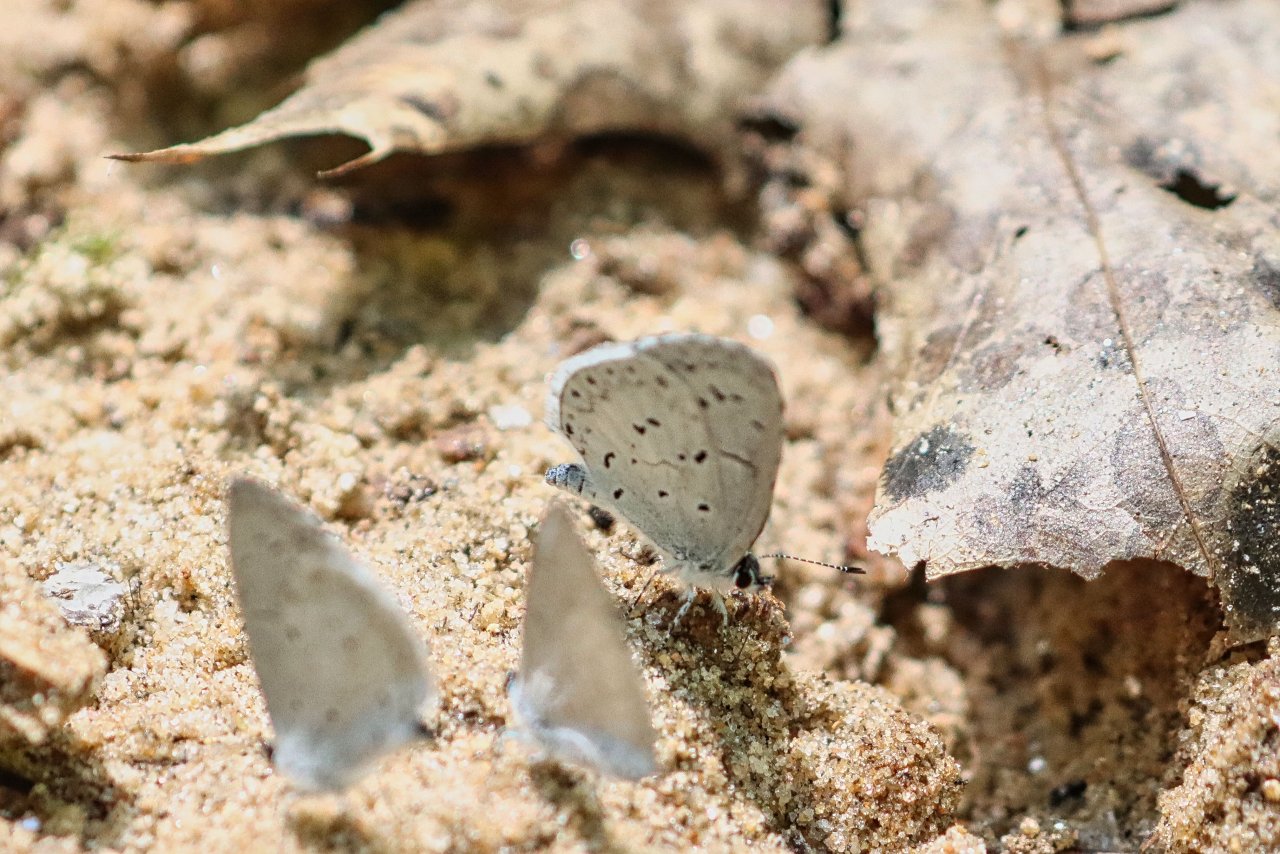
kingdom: Animalia
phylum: Arthropoda
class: Insecta
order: Lepidoptera
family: Lycaenidae
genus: Elkalyce
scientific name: Elkalyce comyntas
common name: Eastern Tailed-Blue
